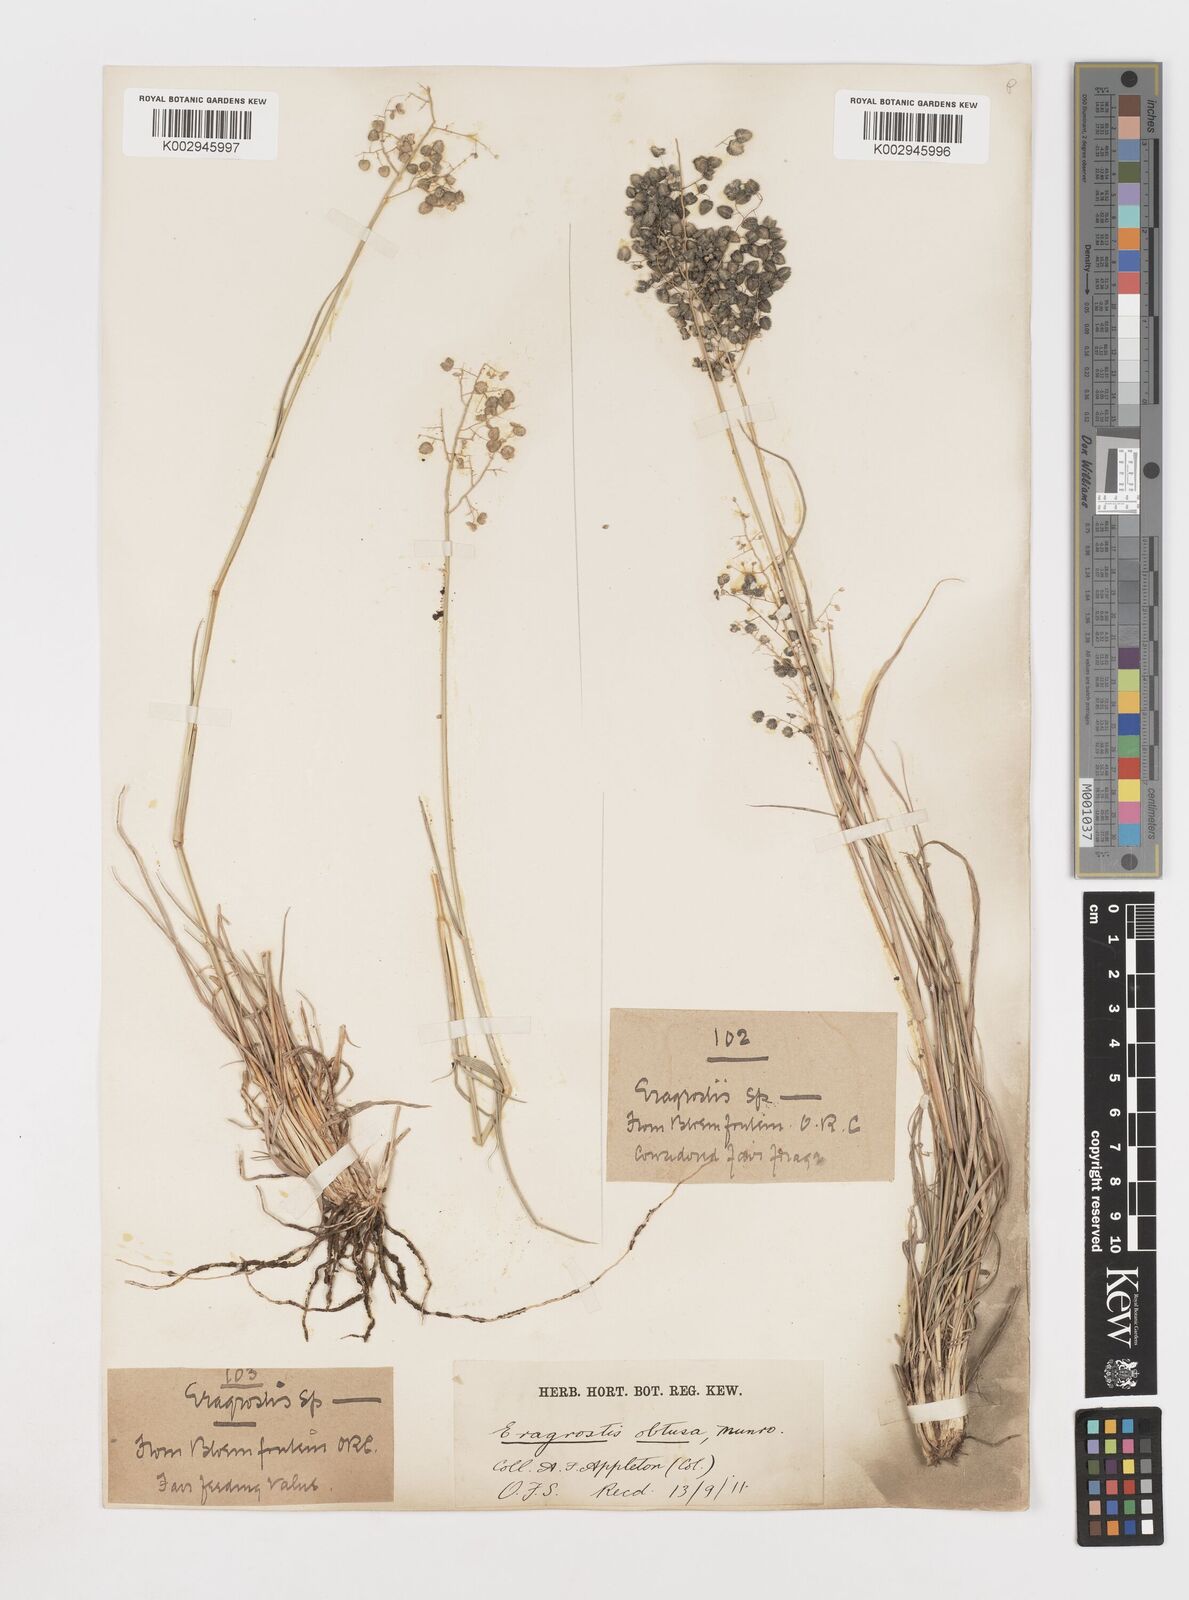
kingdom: Plantae
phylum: Tracheophyta
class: Liliopsida
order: Poales
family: Poaceae
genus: Eragrostis
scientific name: Eragrostis obtusa
